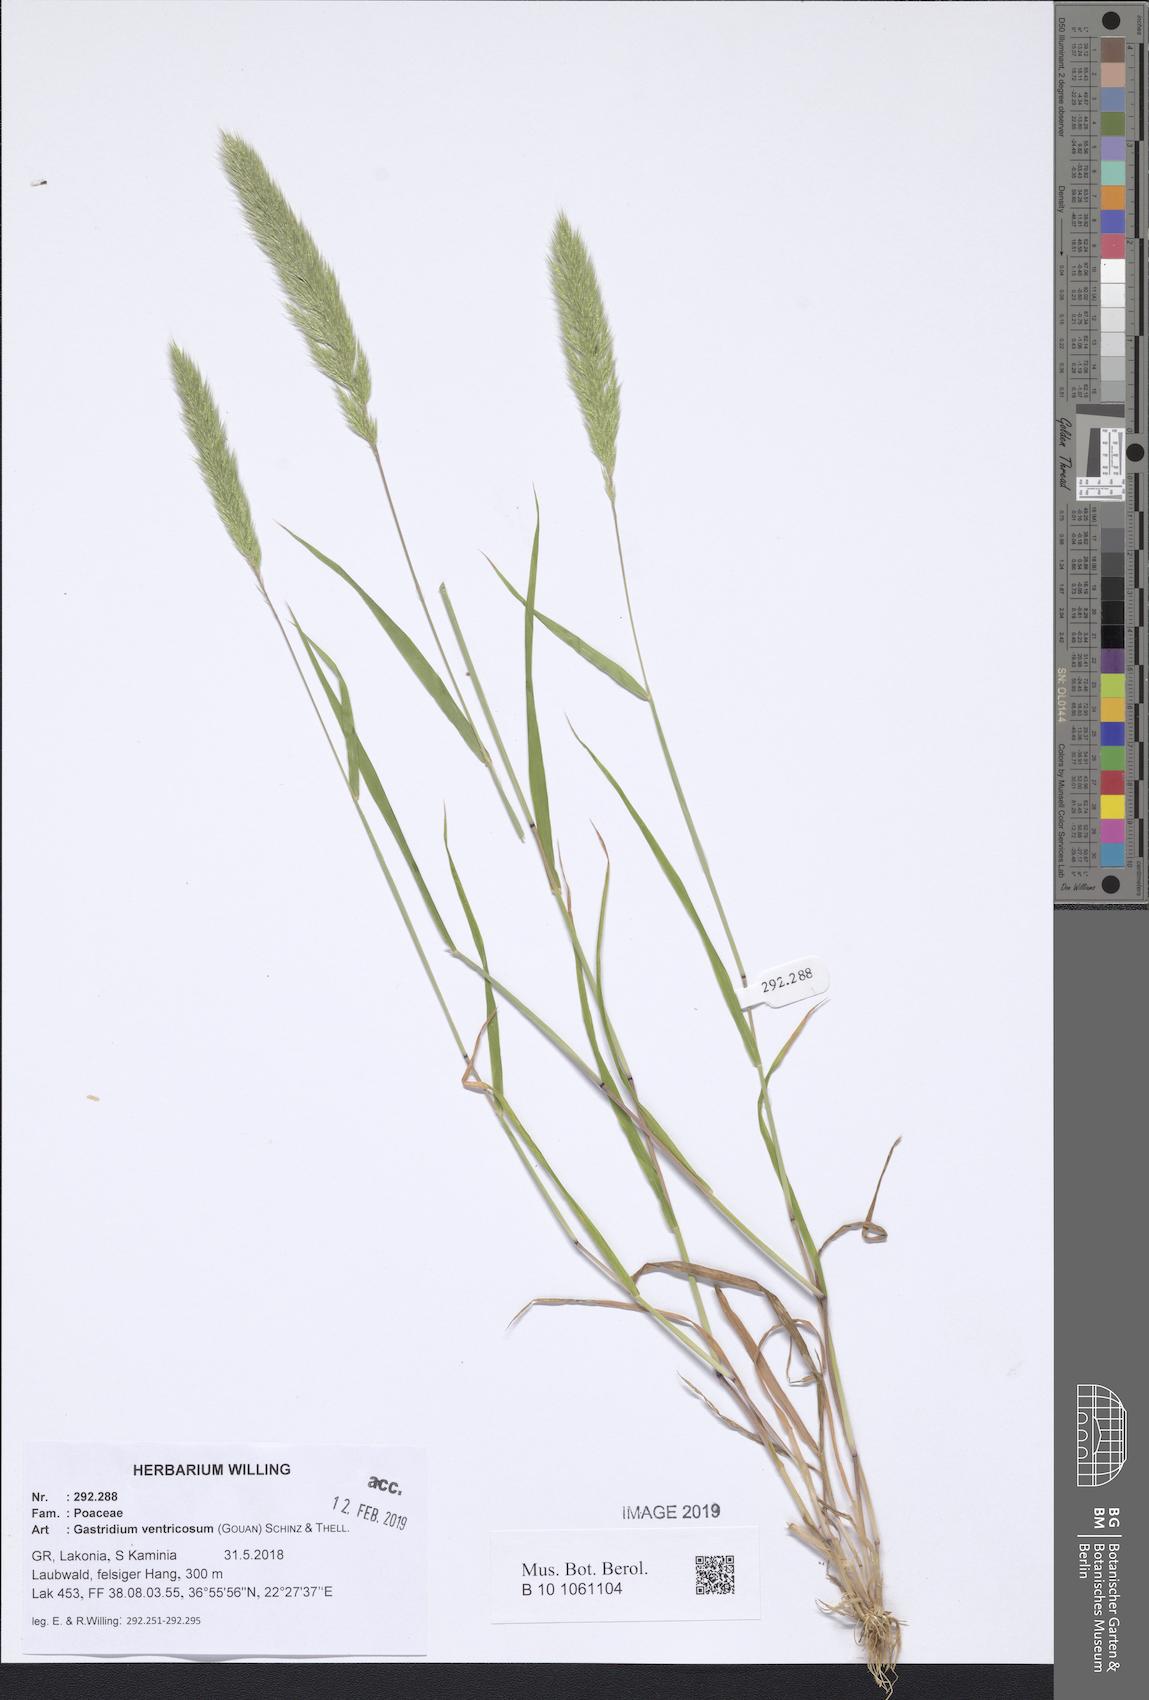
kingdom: Plantae
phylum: Tracheophyta
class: Liliopsida
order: Poales
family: Poaceae
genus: Gastridium
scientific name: Gastridium ventricosum
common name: Nit-grass
